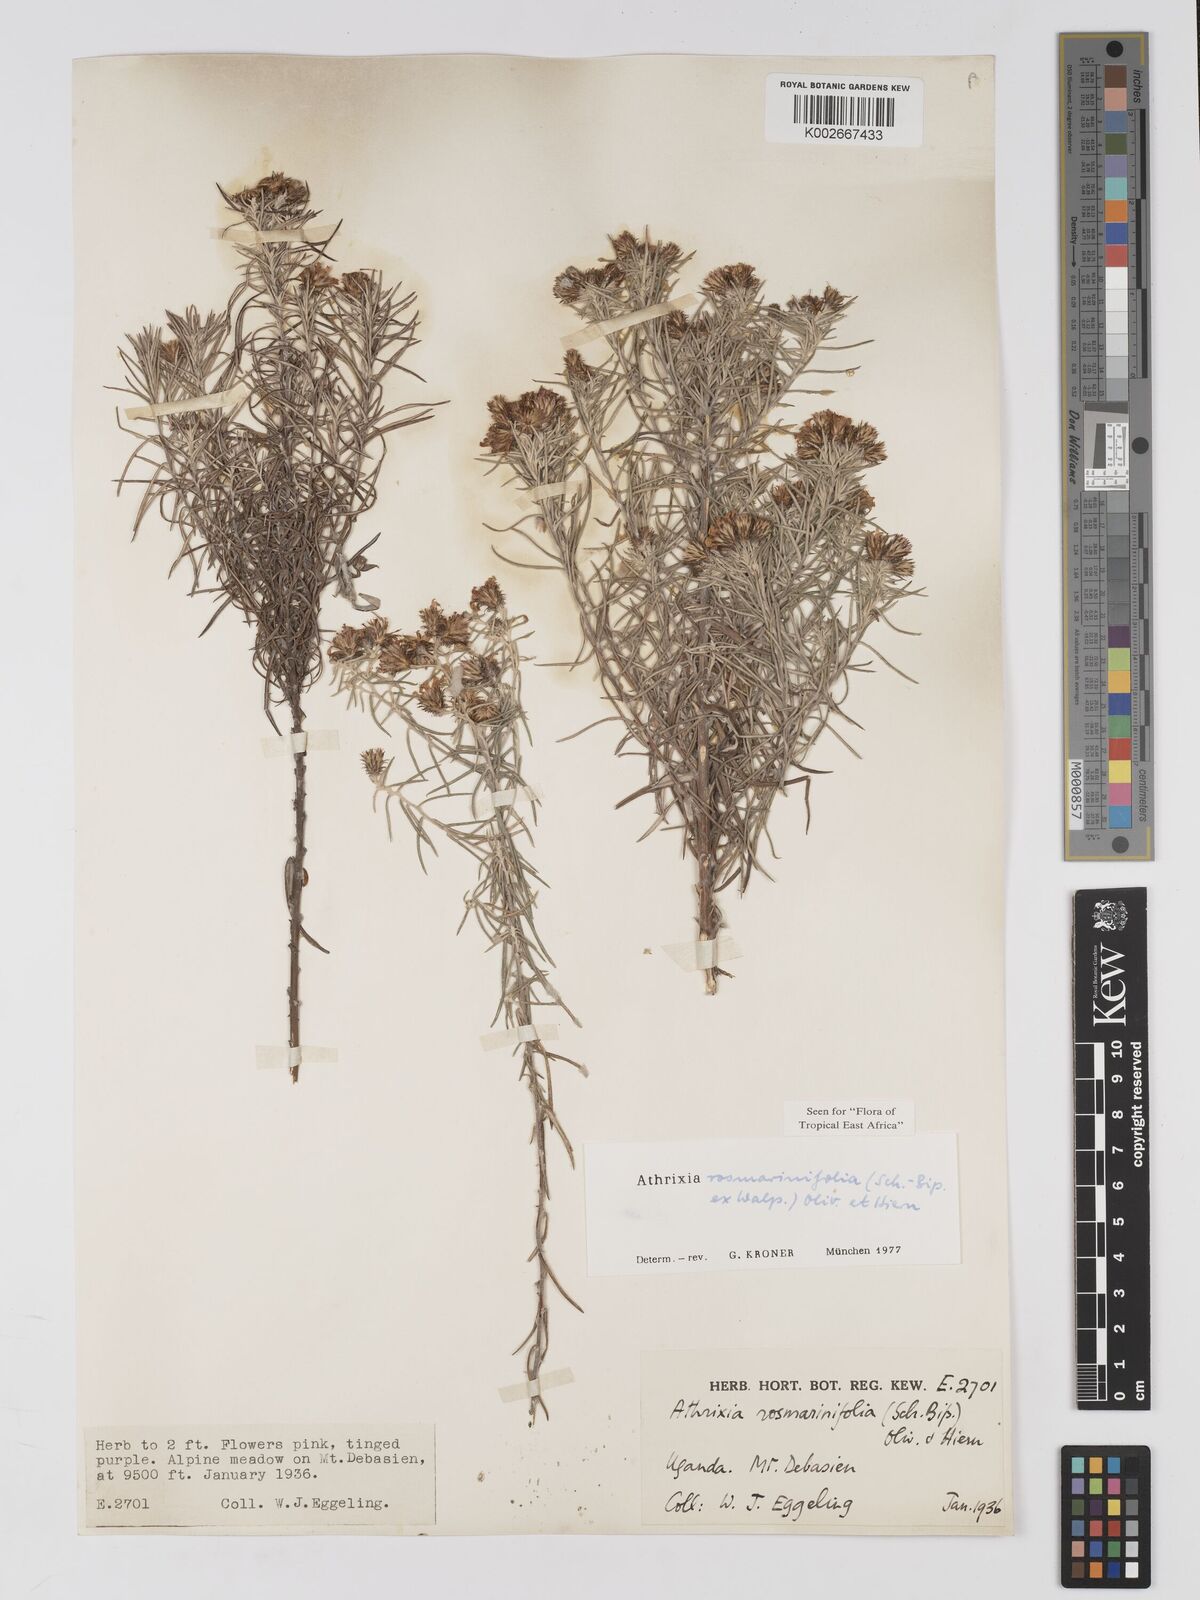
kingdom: Plantae
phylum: Tracheophyta
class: Magnoliopsida
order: Asterales
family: Asteraceae
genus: Athrixia
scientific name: Athrixia rosmarinifolia
